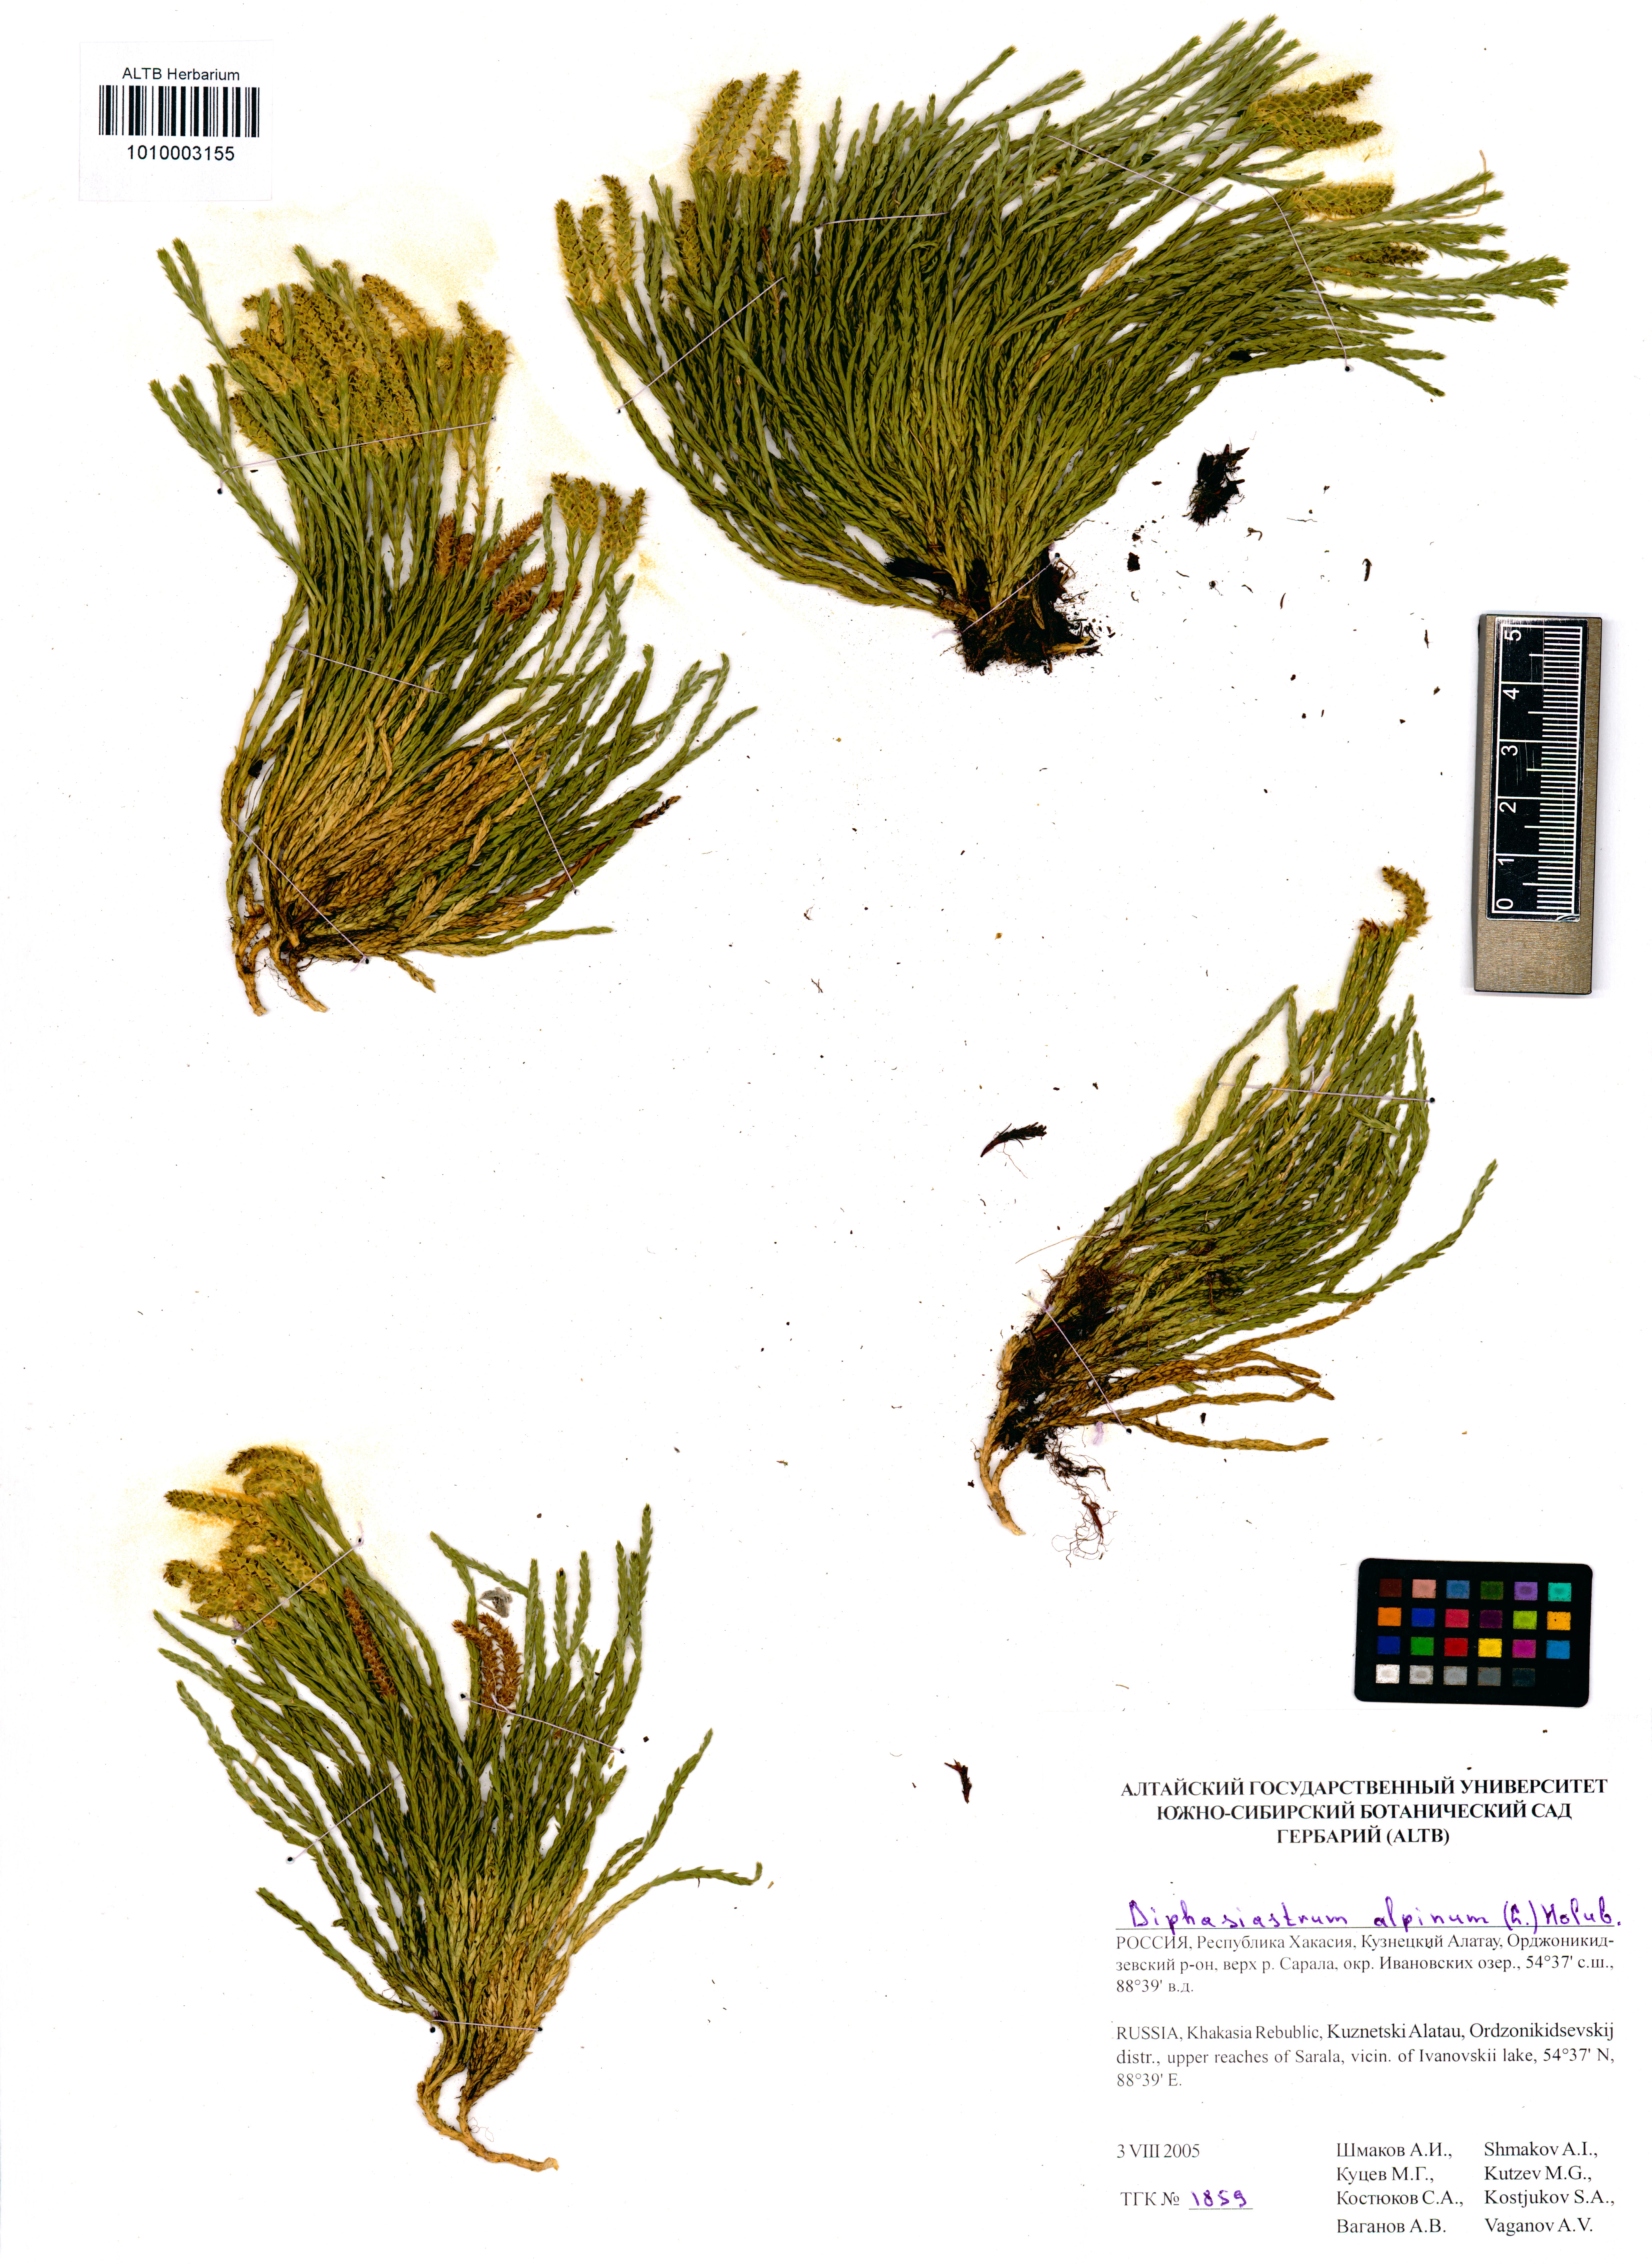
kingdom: Plantae
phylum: Tracheophyta
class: Lycopodiopsida
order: Lycopodiales
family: Lycopodiaceae
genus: Diphasiastrum
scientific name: Diphasiastrum alpinum
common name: Alpine clubmoss
